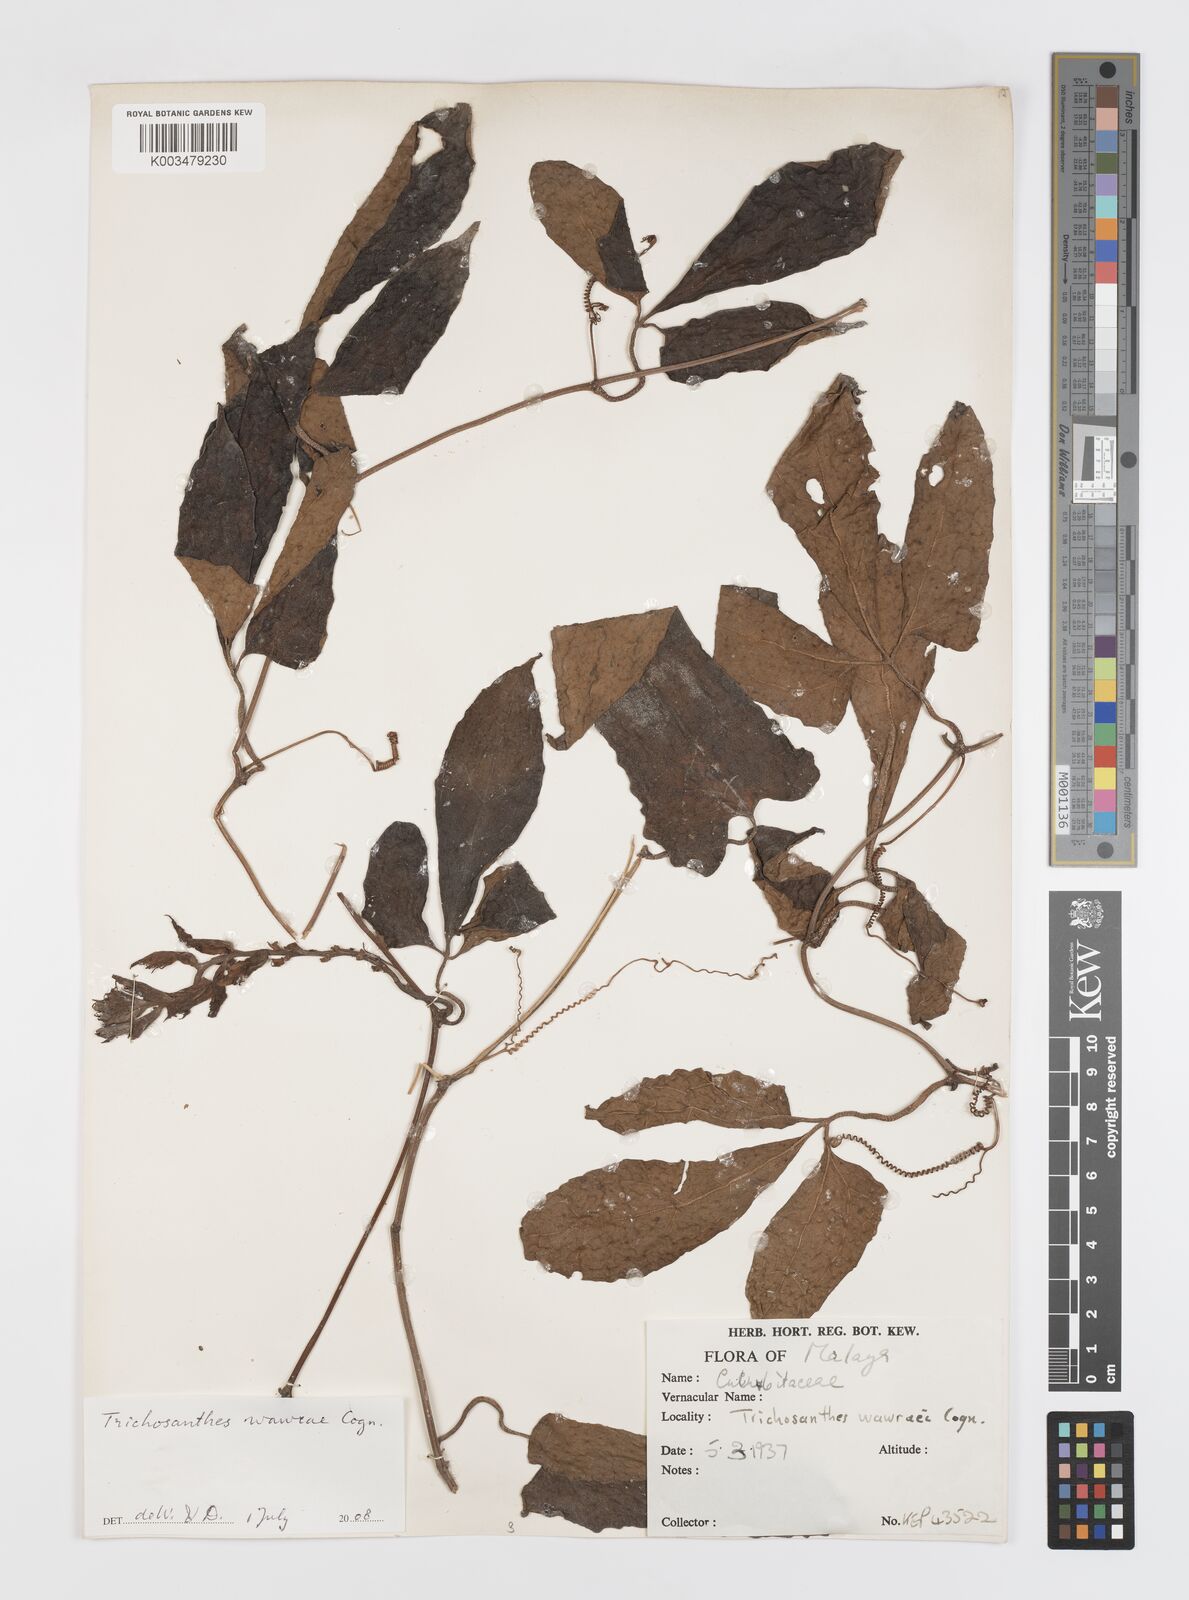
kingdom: Plantae
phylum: Tracheophyta
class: Magnoliopsida
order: Cucurbitales
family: Cucurbitaceae
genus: Trichosanthes
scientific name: Trichosanthes wawrae
